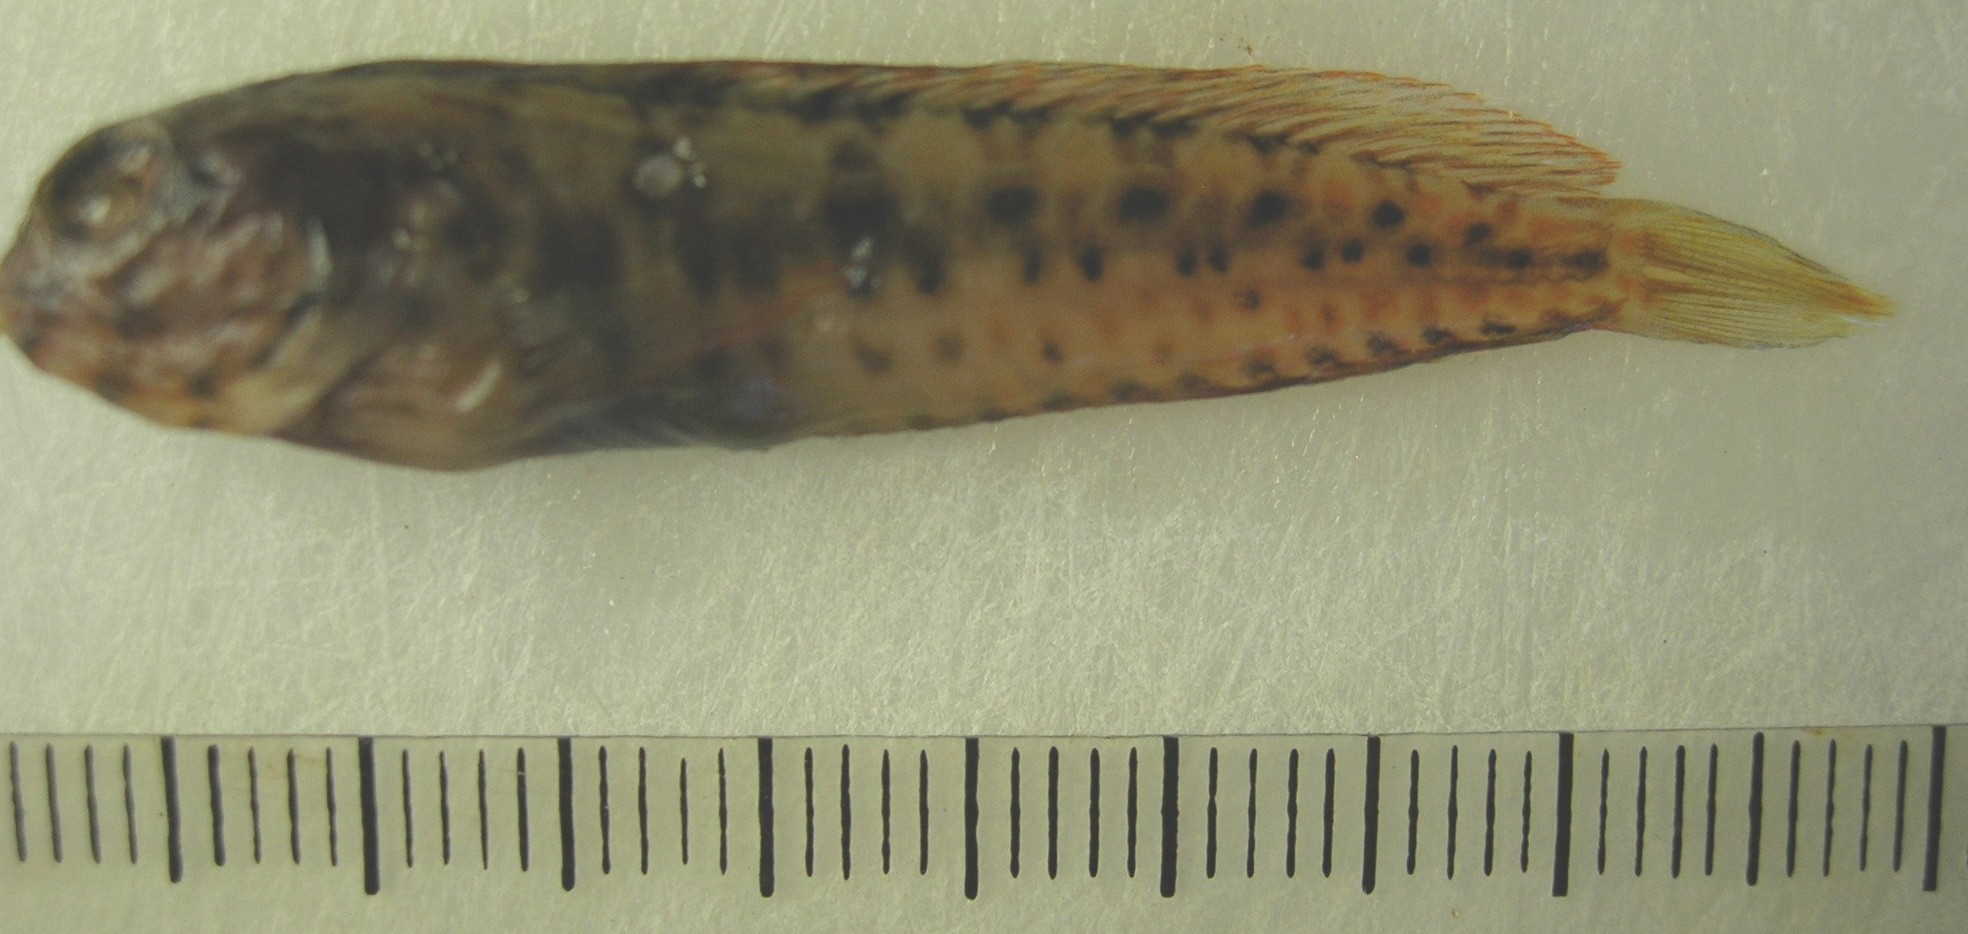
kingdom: Animalia
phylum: Chordata
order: Perciformes
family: Blenniidae
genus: Parablennius
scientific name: Parablennius pilicornis
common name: Ringneck blenny
